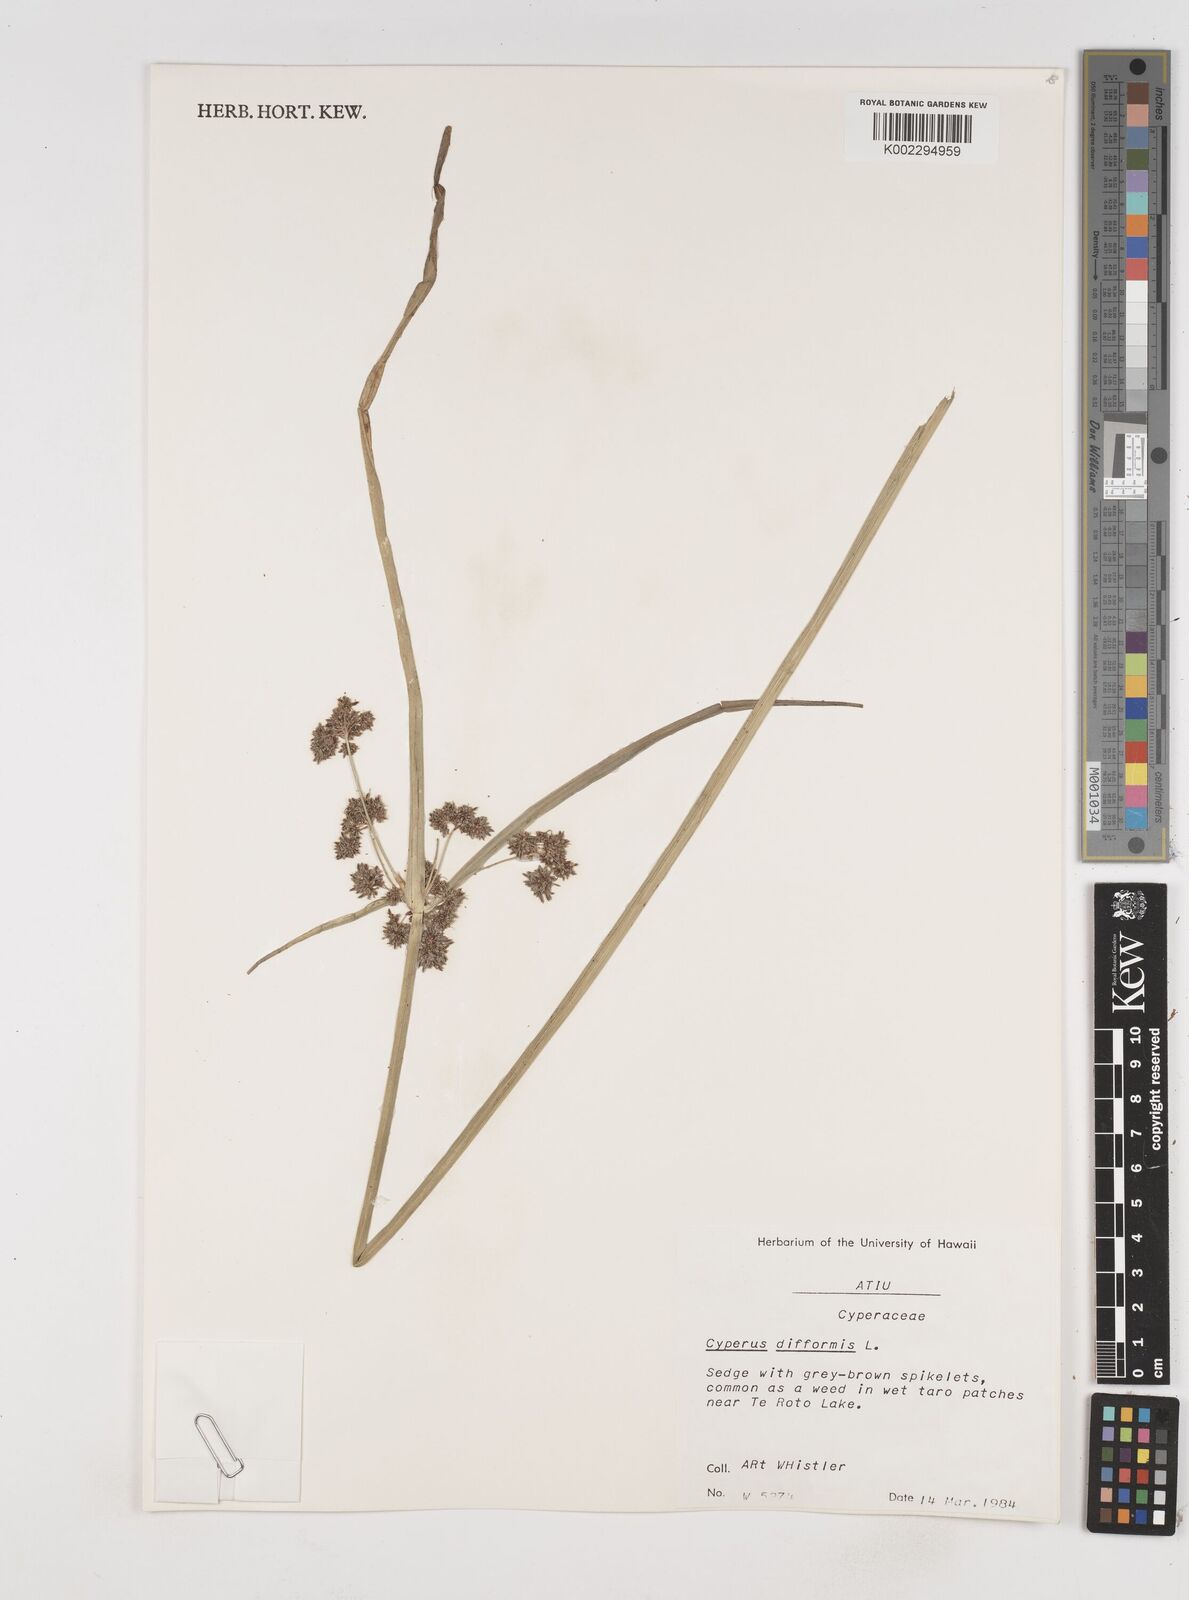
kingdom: Plantae
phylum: Tracheophyta
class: Liliopsida
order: Poales
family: Cyperaceae
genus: Cyperus
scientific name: Cyperus difformis
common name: Variable flatsedge
